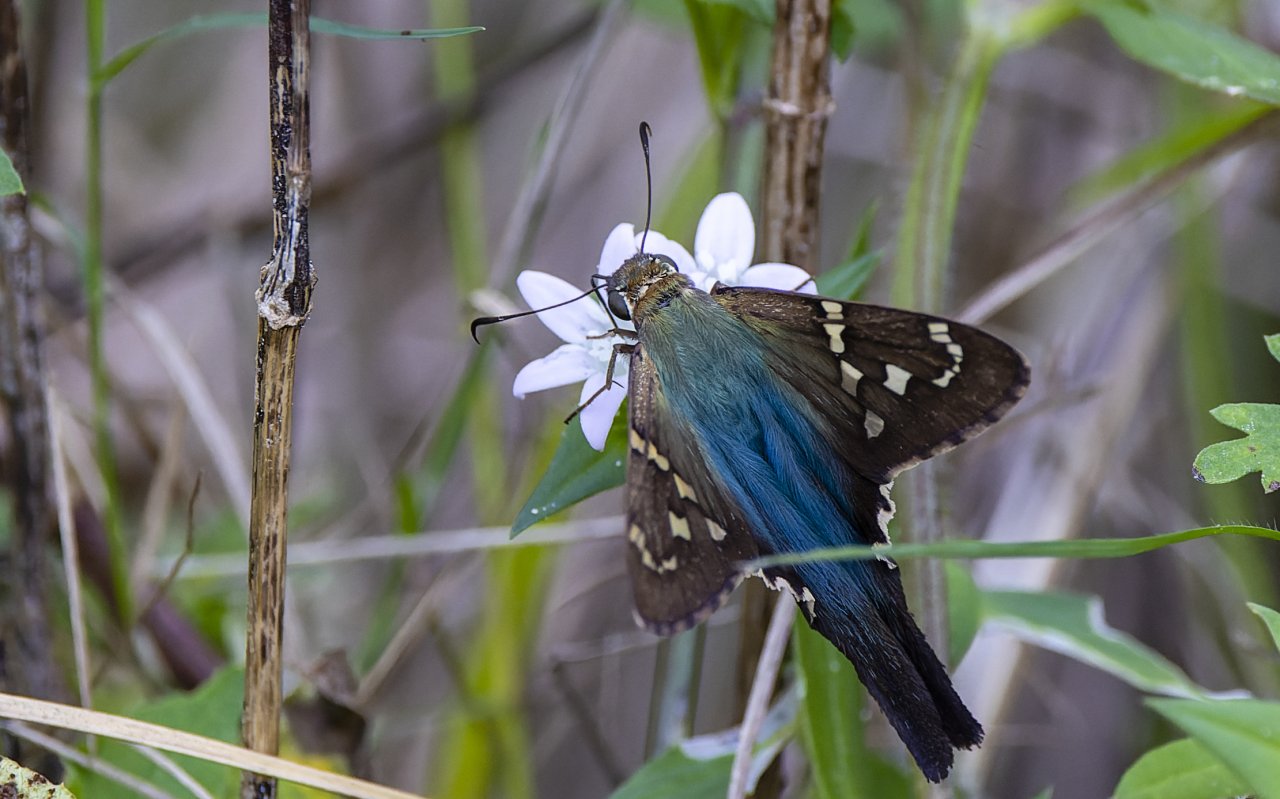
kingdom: Animalia
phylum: Arthropoda
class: Insecta
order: Lepidoptera
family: Hesperiidae
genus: Urbanus
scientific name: Urbanus proteus
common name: Long-tailed Skipper
